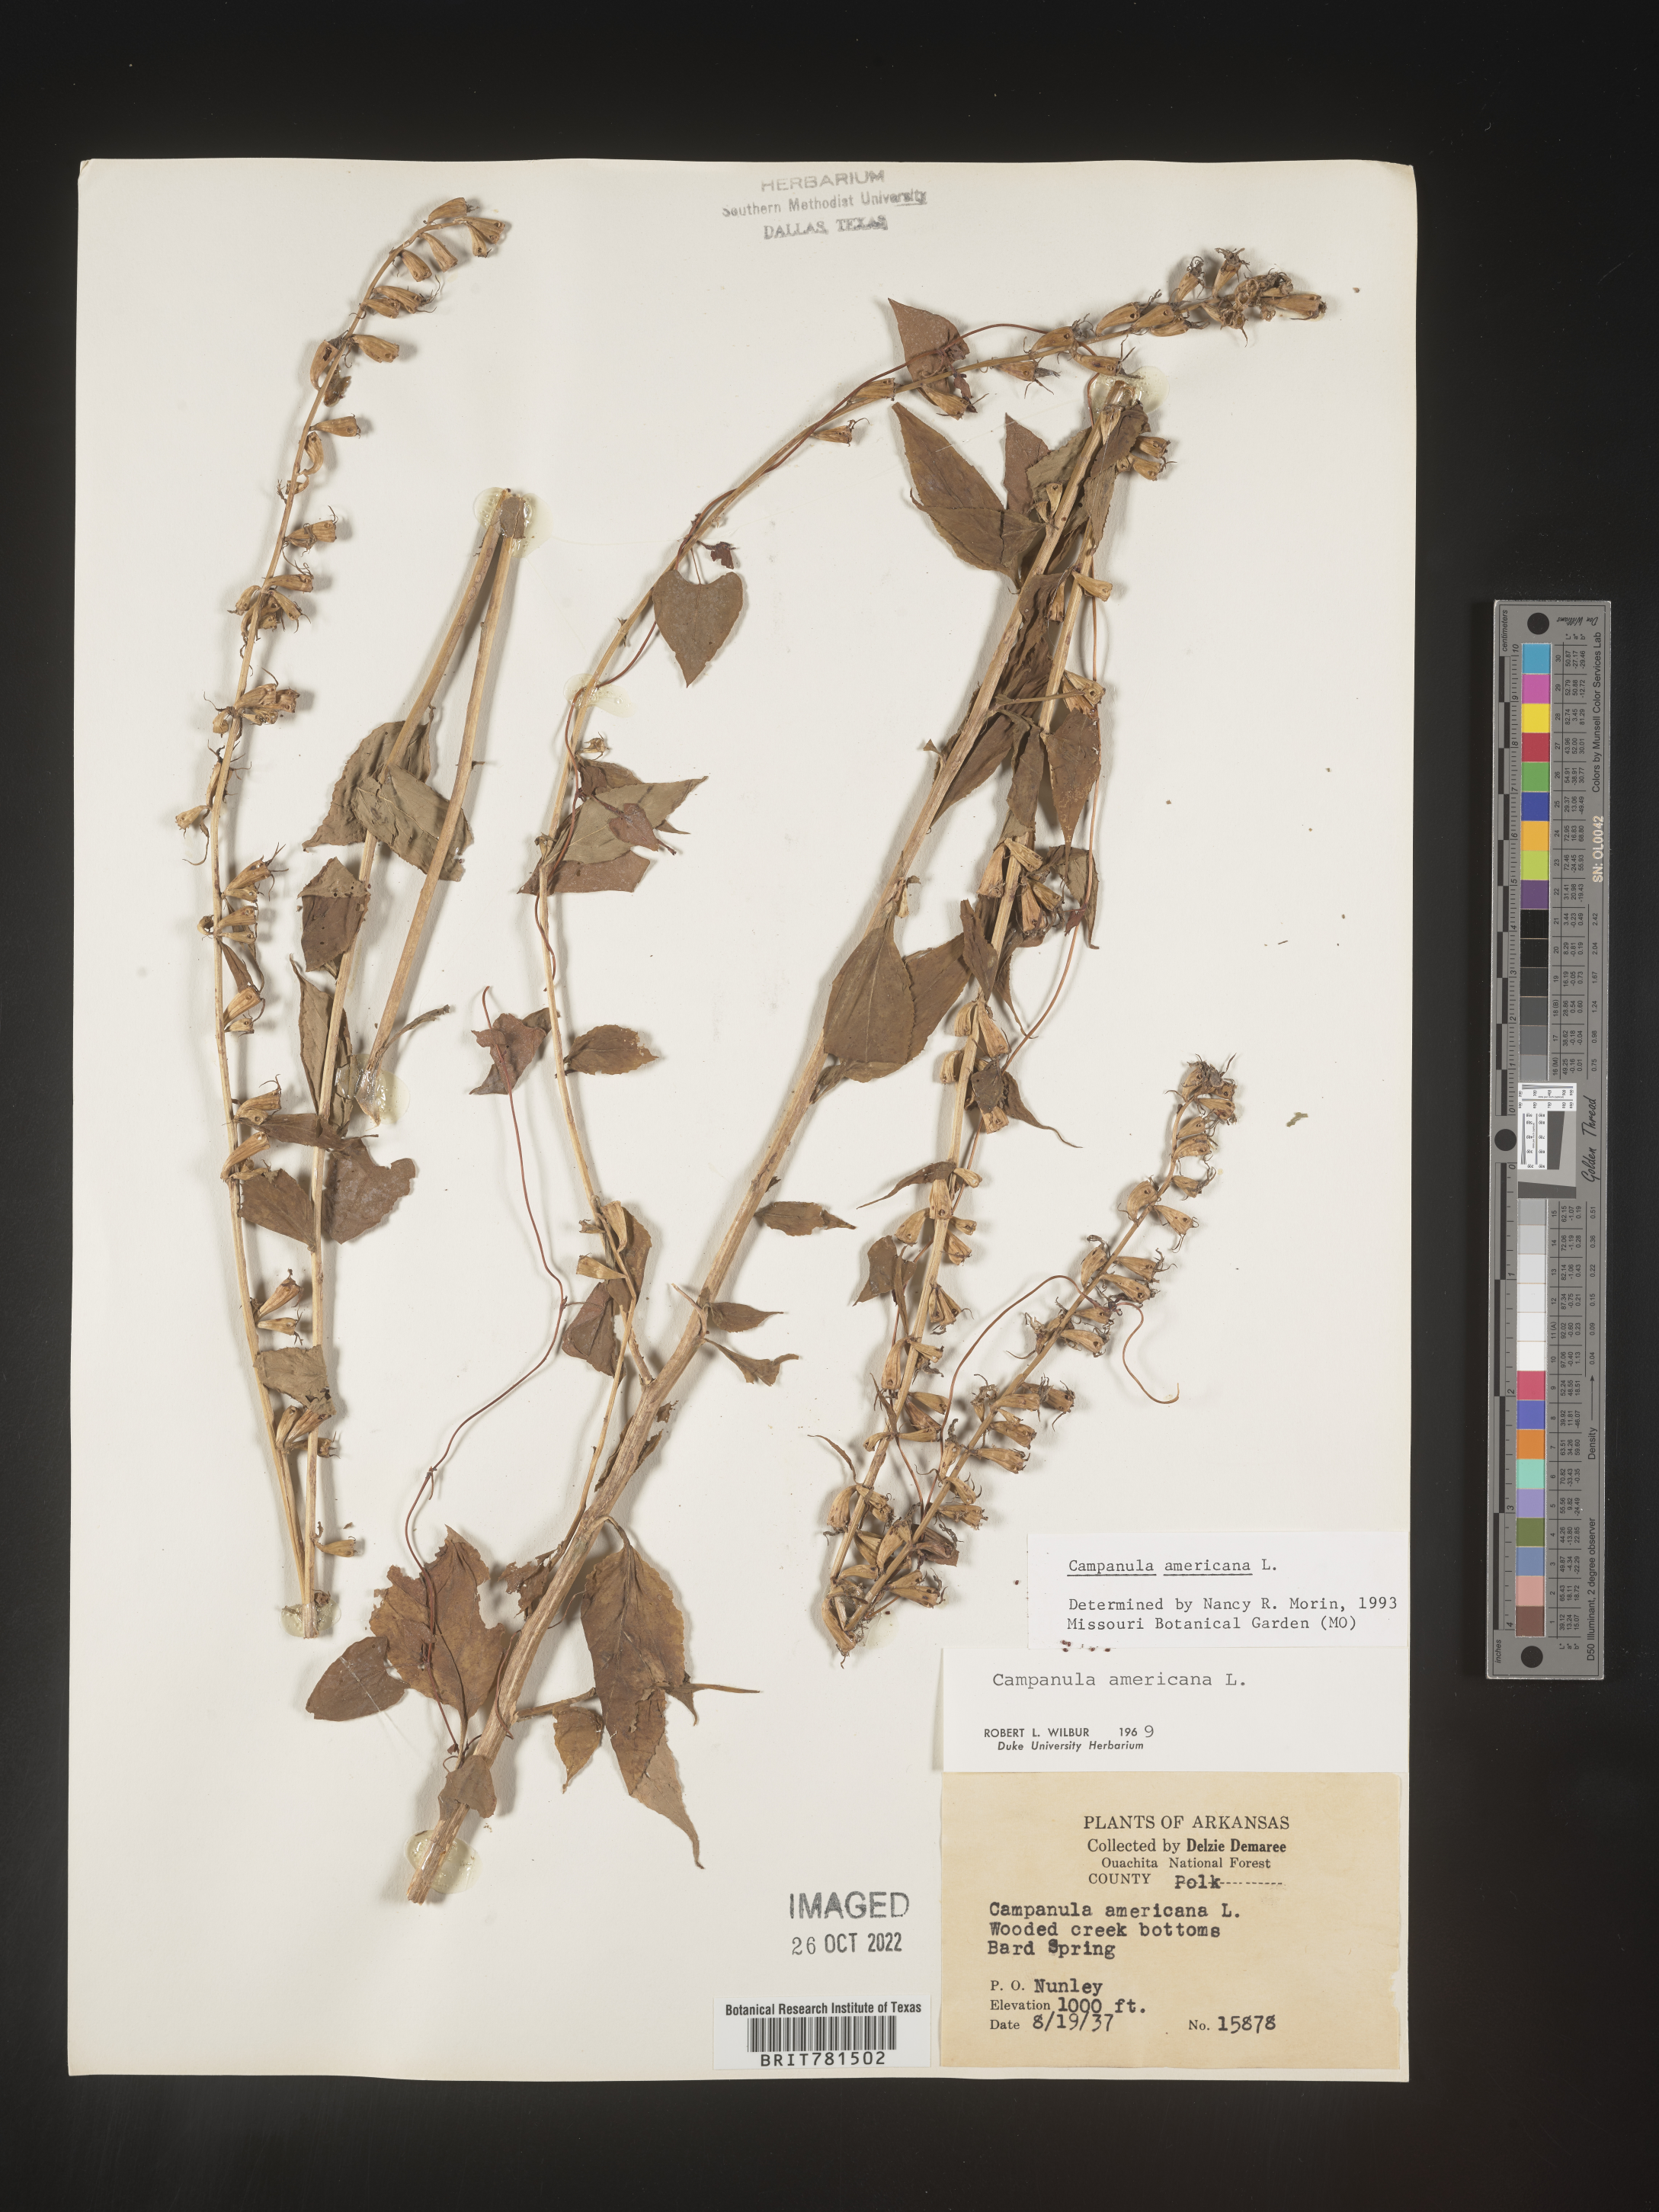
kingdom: Plantae
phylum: Tracheophyta
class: Magnoliopsida
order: Asterales
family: Campanulaceae
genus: Campanula
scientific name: Campanula americana
